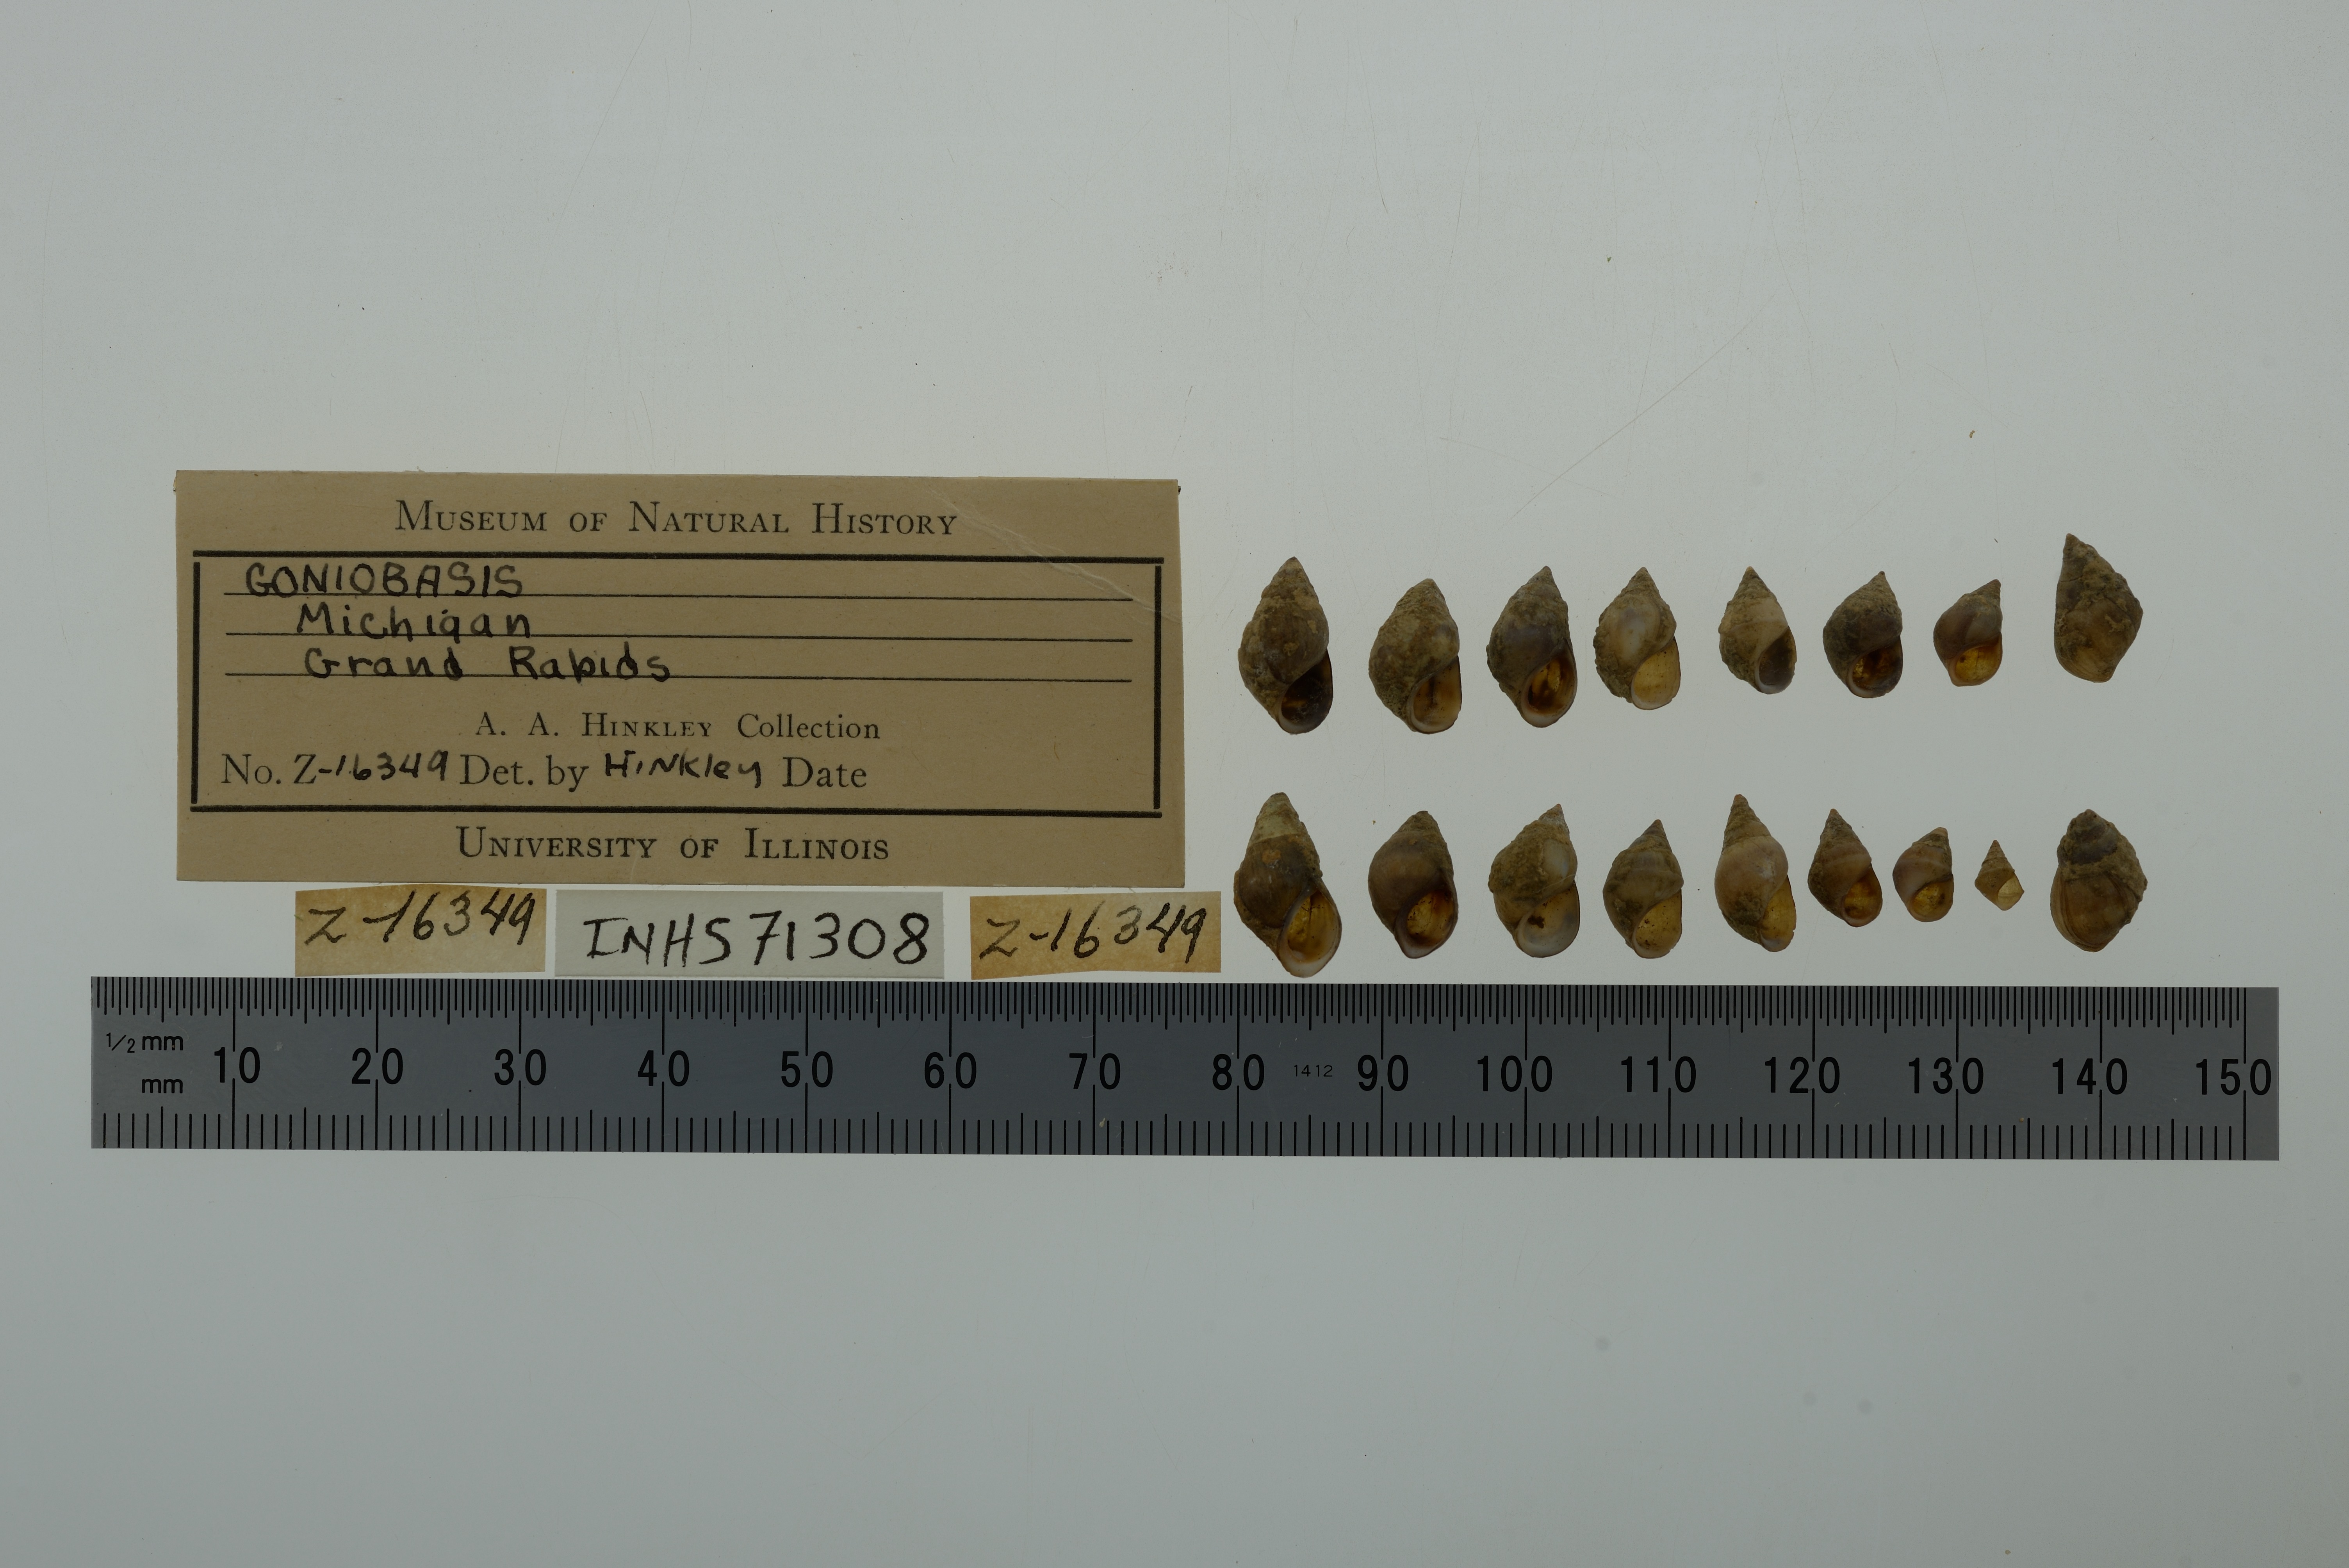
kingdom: Animalia
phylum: Mollusca
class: Gastropoda
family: Pleuroceridae
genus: Elimia
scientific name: Elimia
